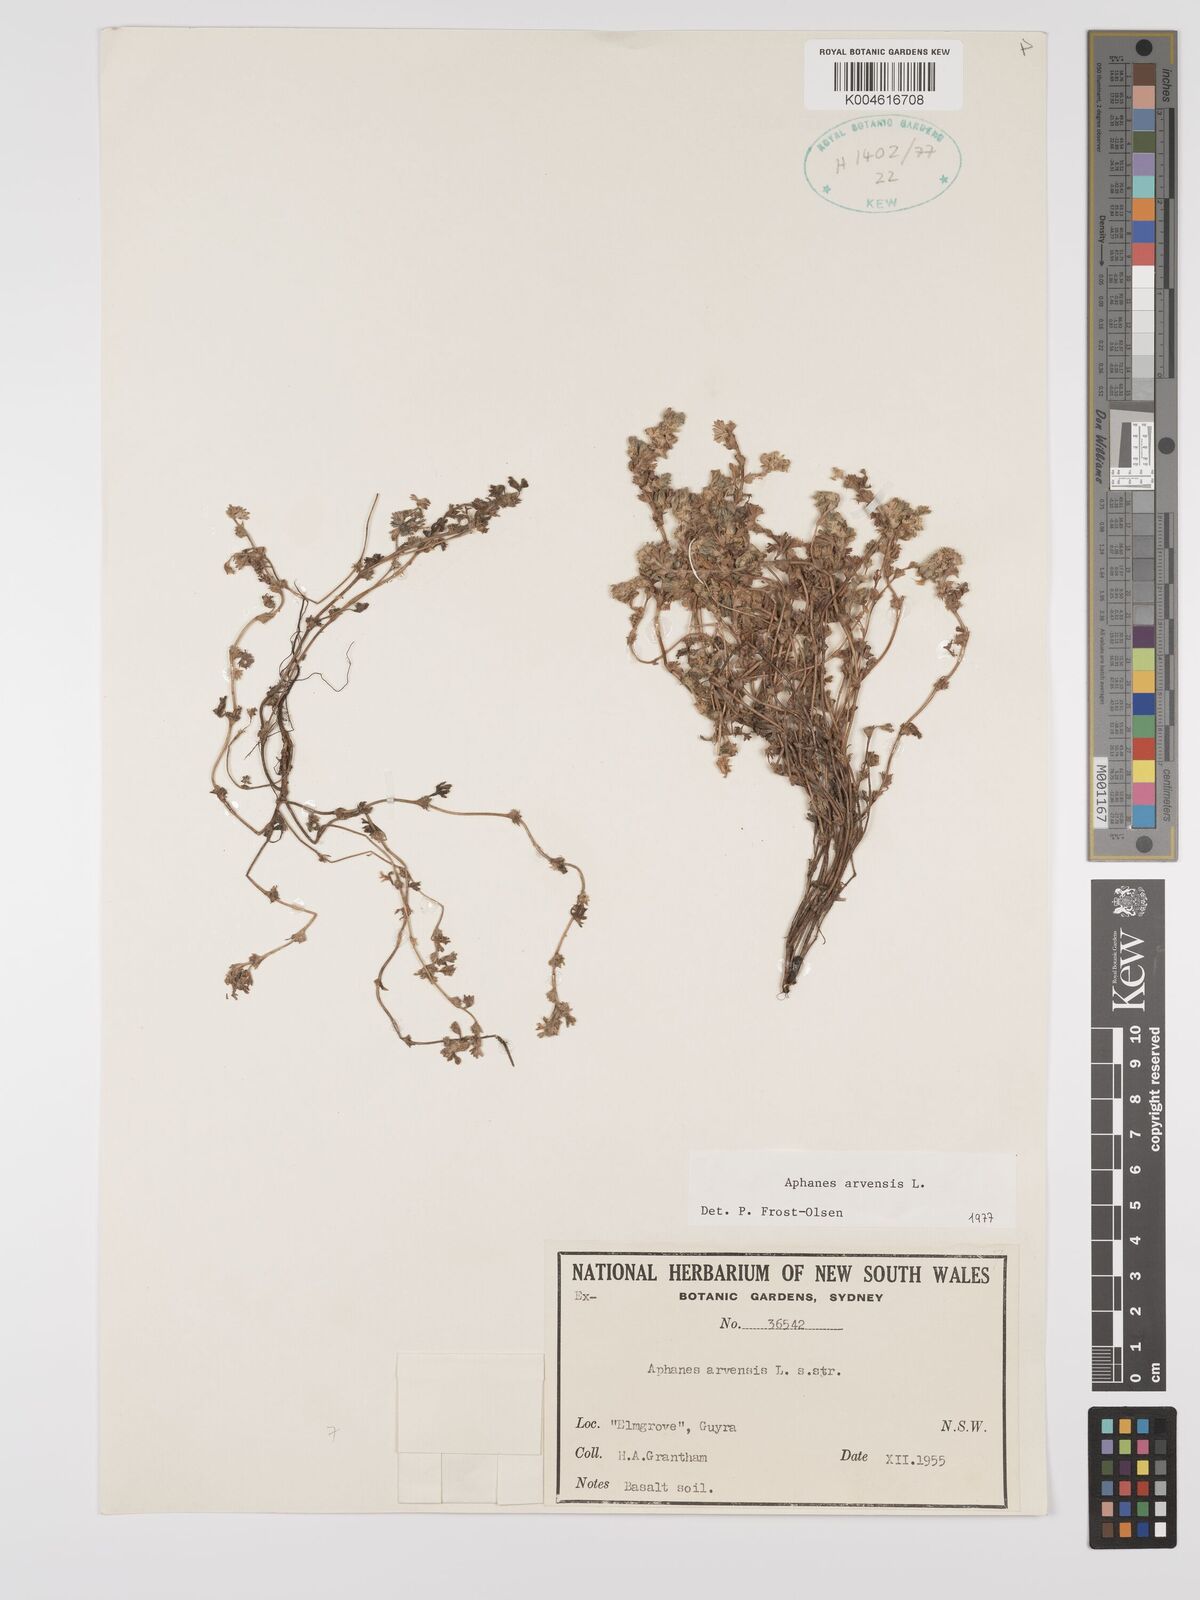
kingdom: Plantae
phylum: Tracheophyta
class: Magnoliopsida
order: Rosales
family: Rosaceae
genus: Aphanes
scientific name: Aphanes arvensis
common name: Parsley-piert
